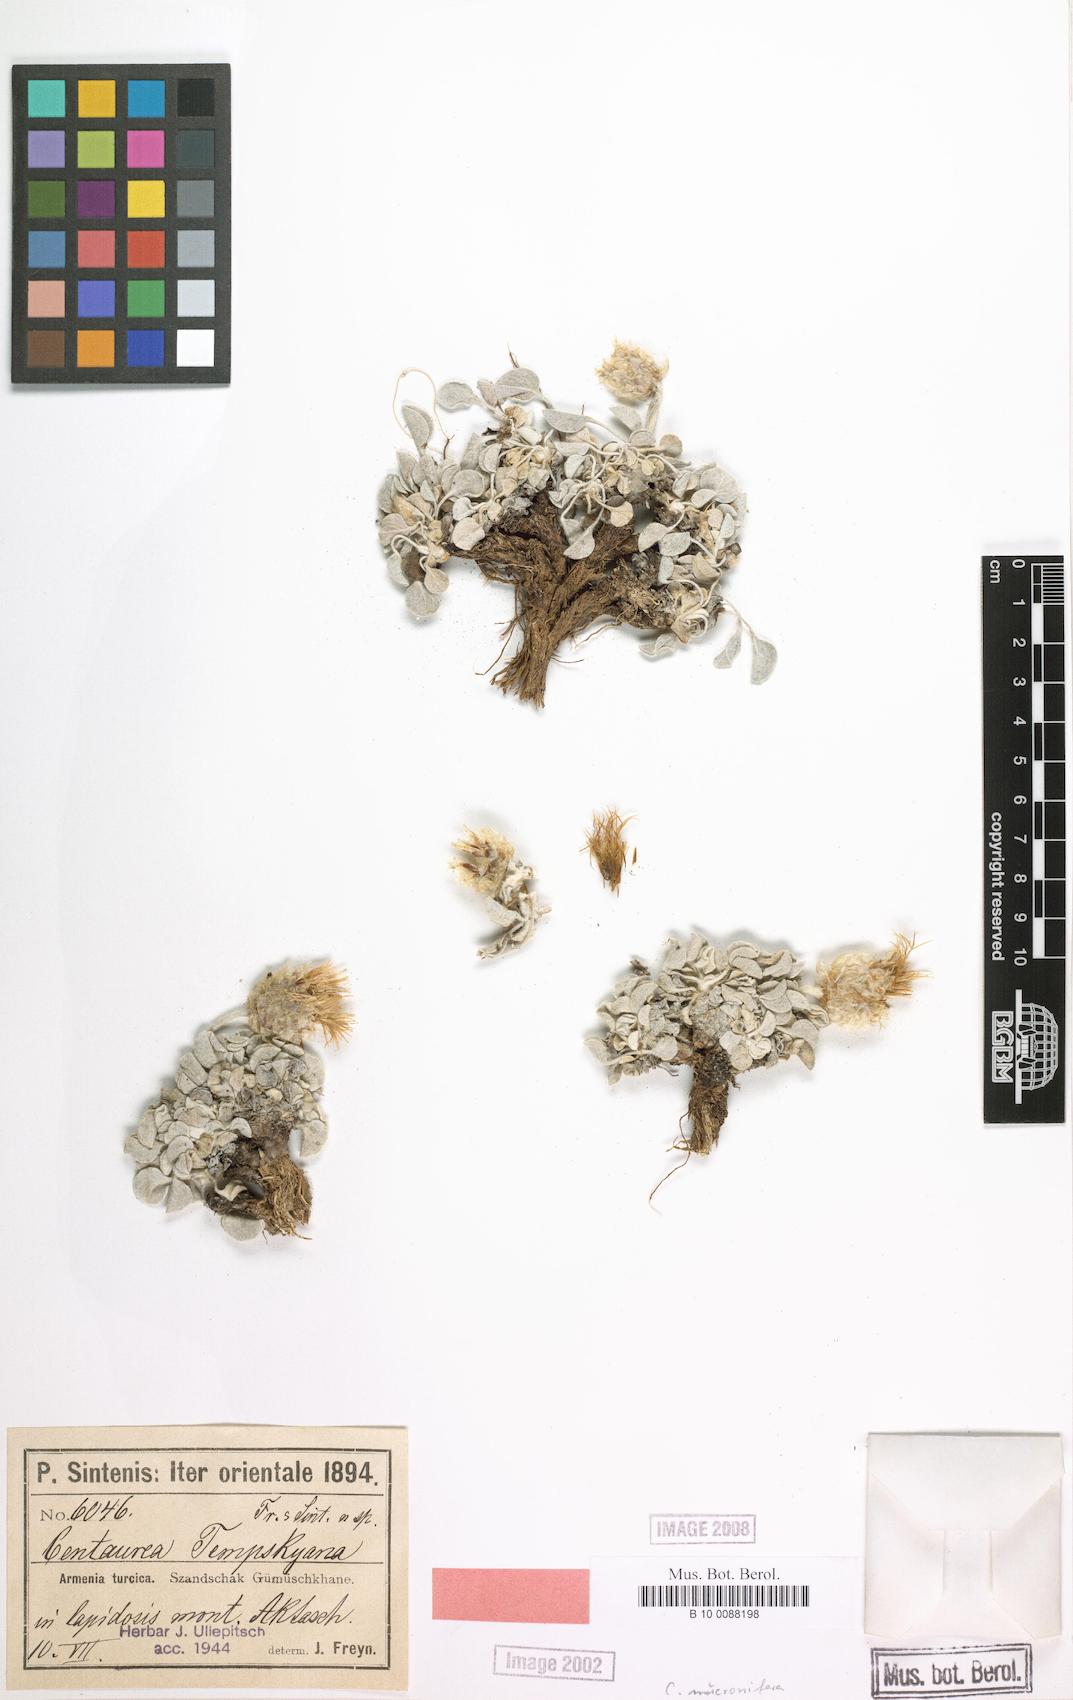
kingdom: Plantae
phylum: Tracheophyta
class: Magnoliopsida
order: Asterales
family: Asteraceae
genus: Psephellus
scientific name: Psephellus mucronifer
